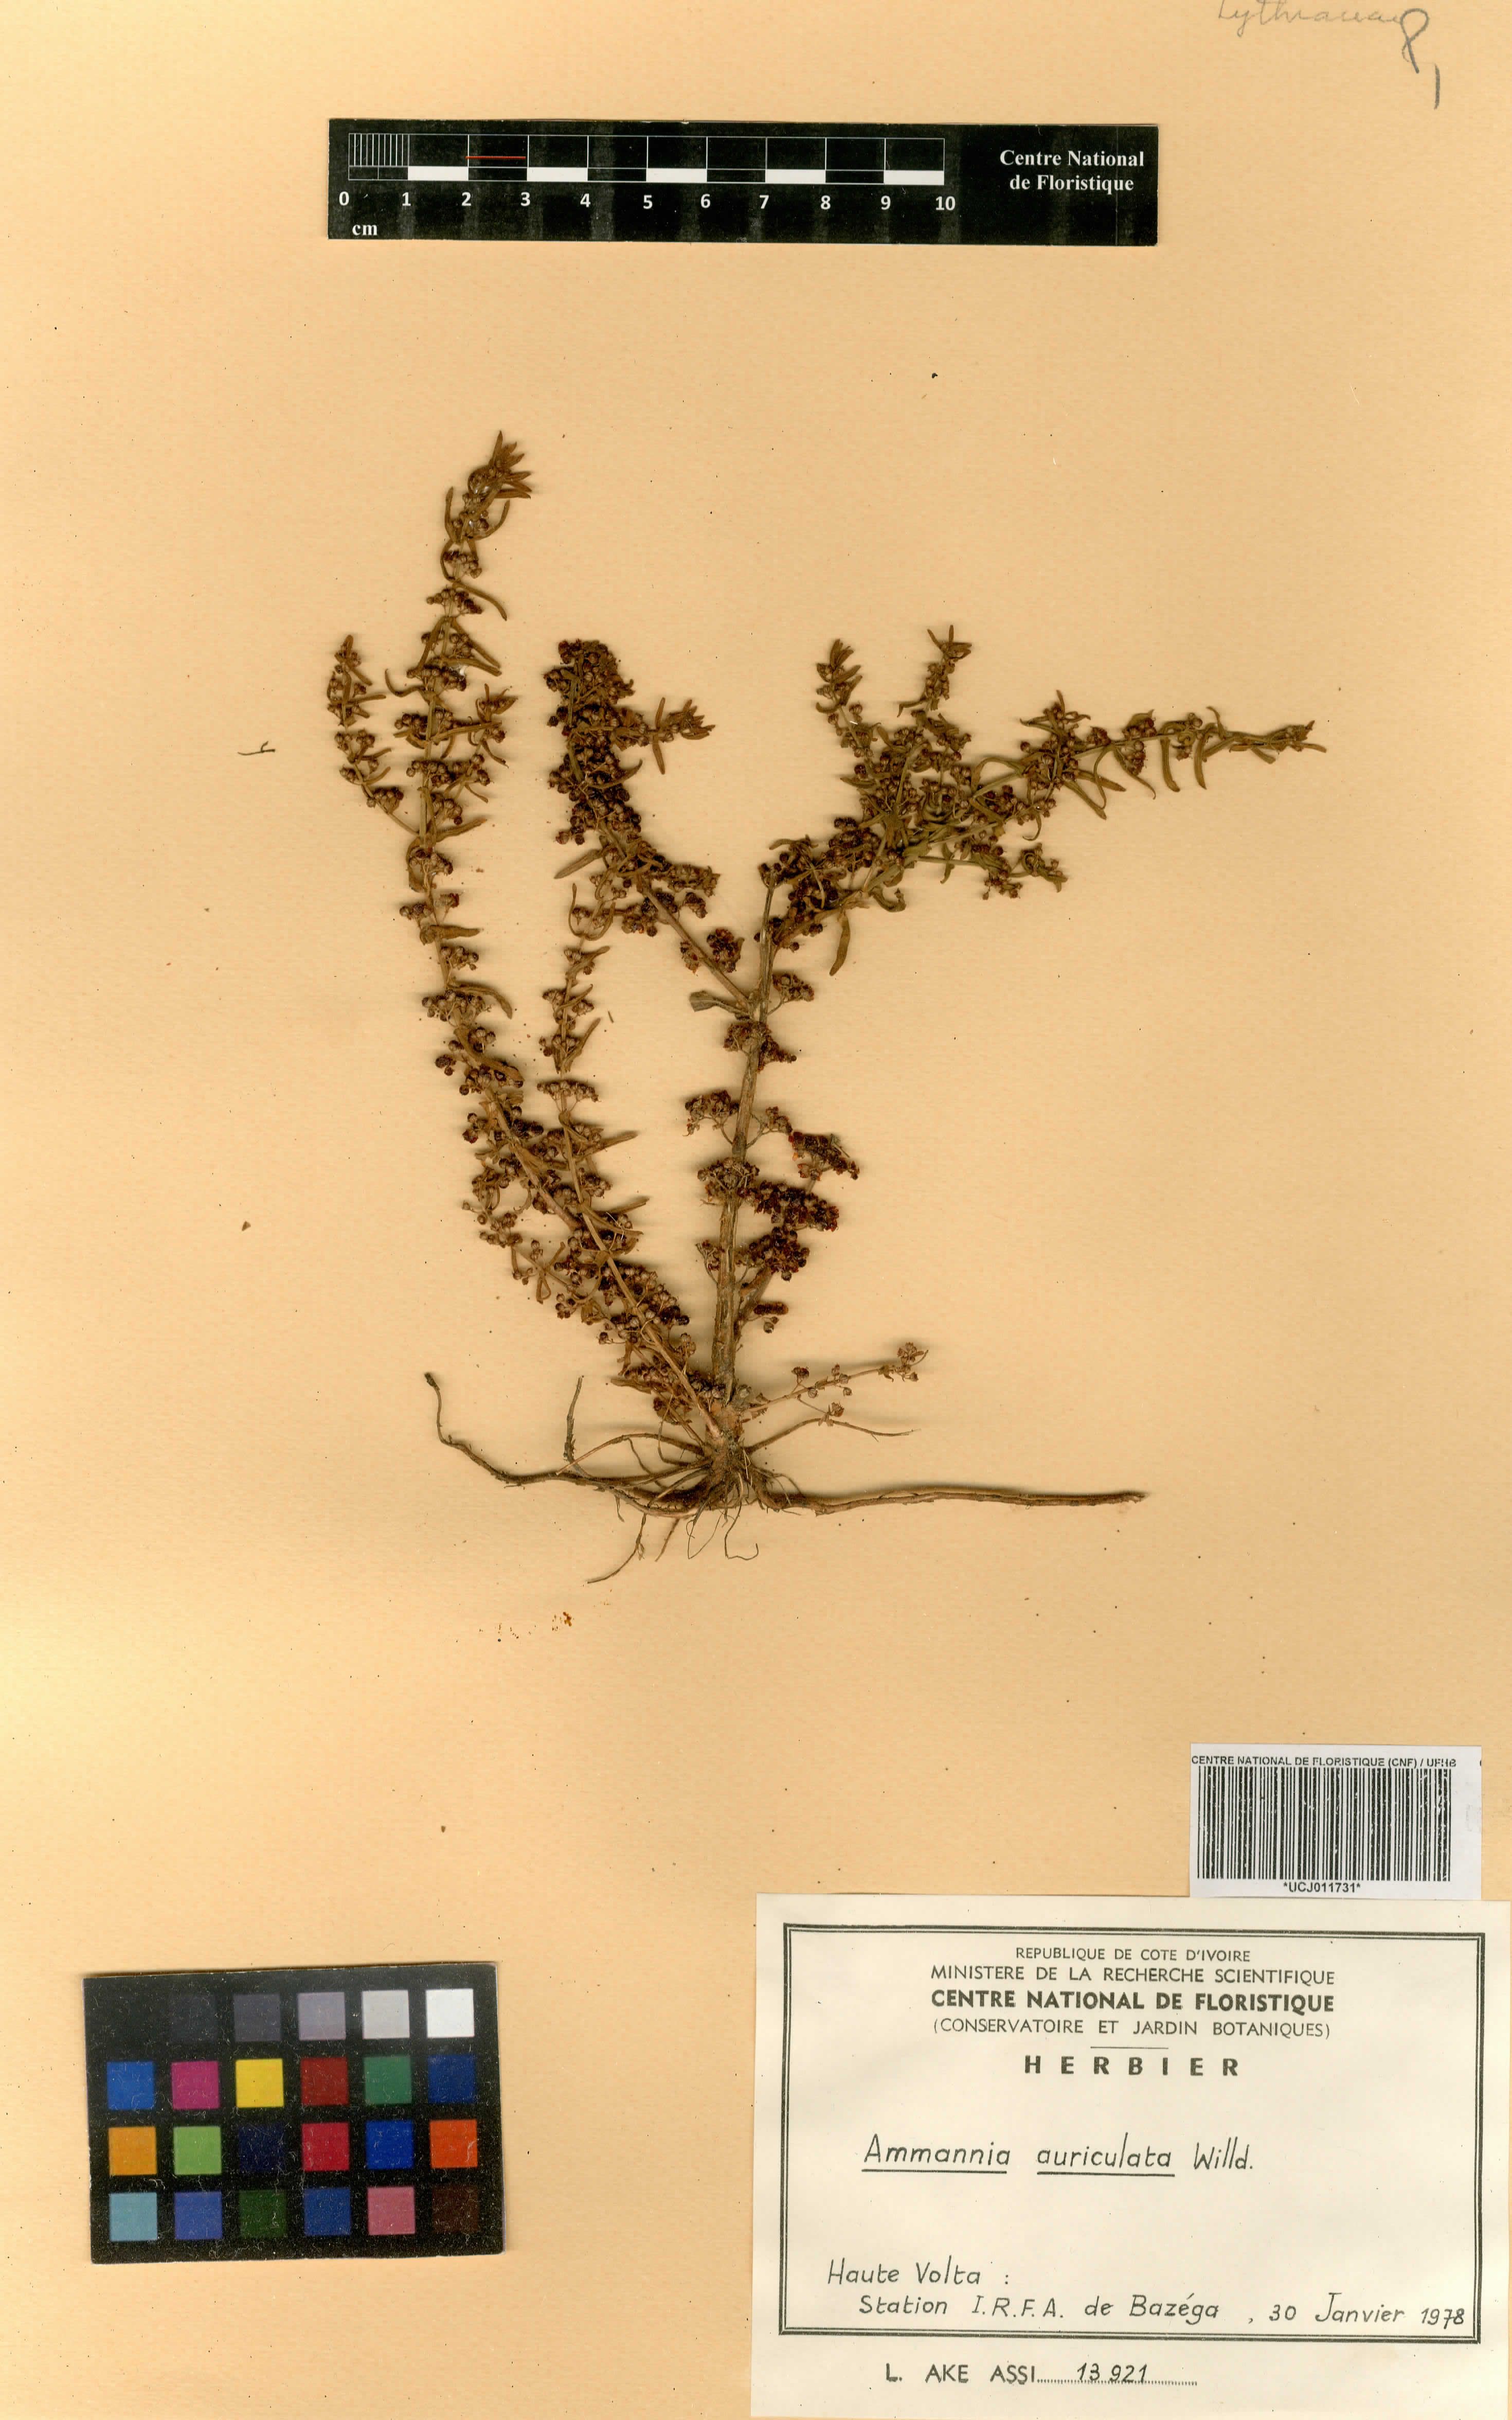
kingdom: Plantae
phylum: Tracheophyta
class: Magnoliopsida
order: Myrtales
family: Lythraceae
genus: Ammannia
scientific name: Ammannia auriculata
